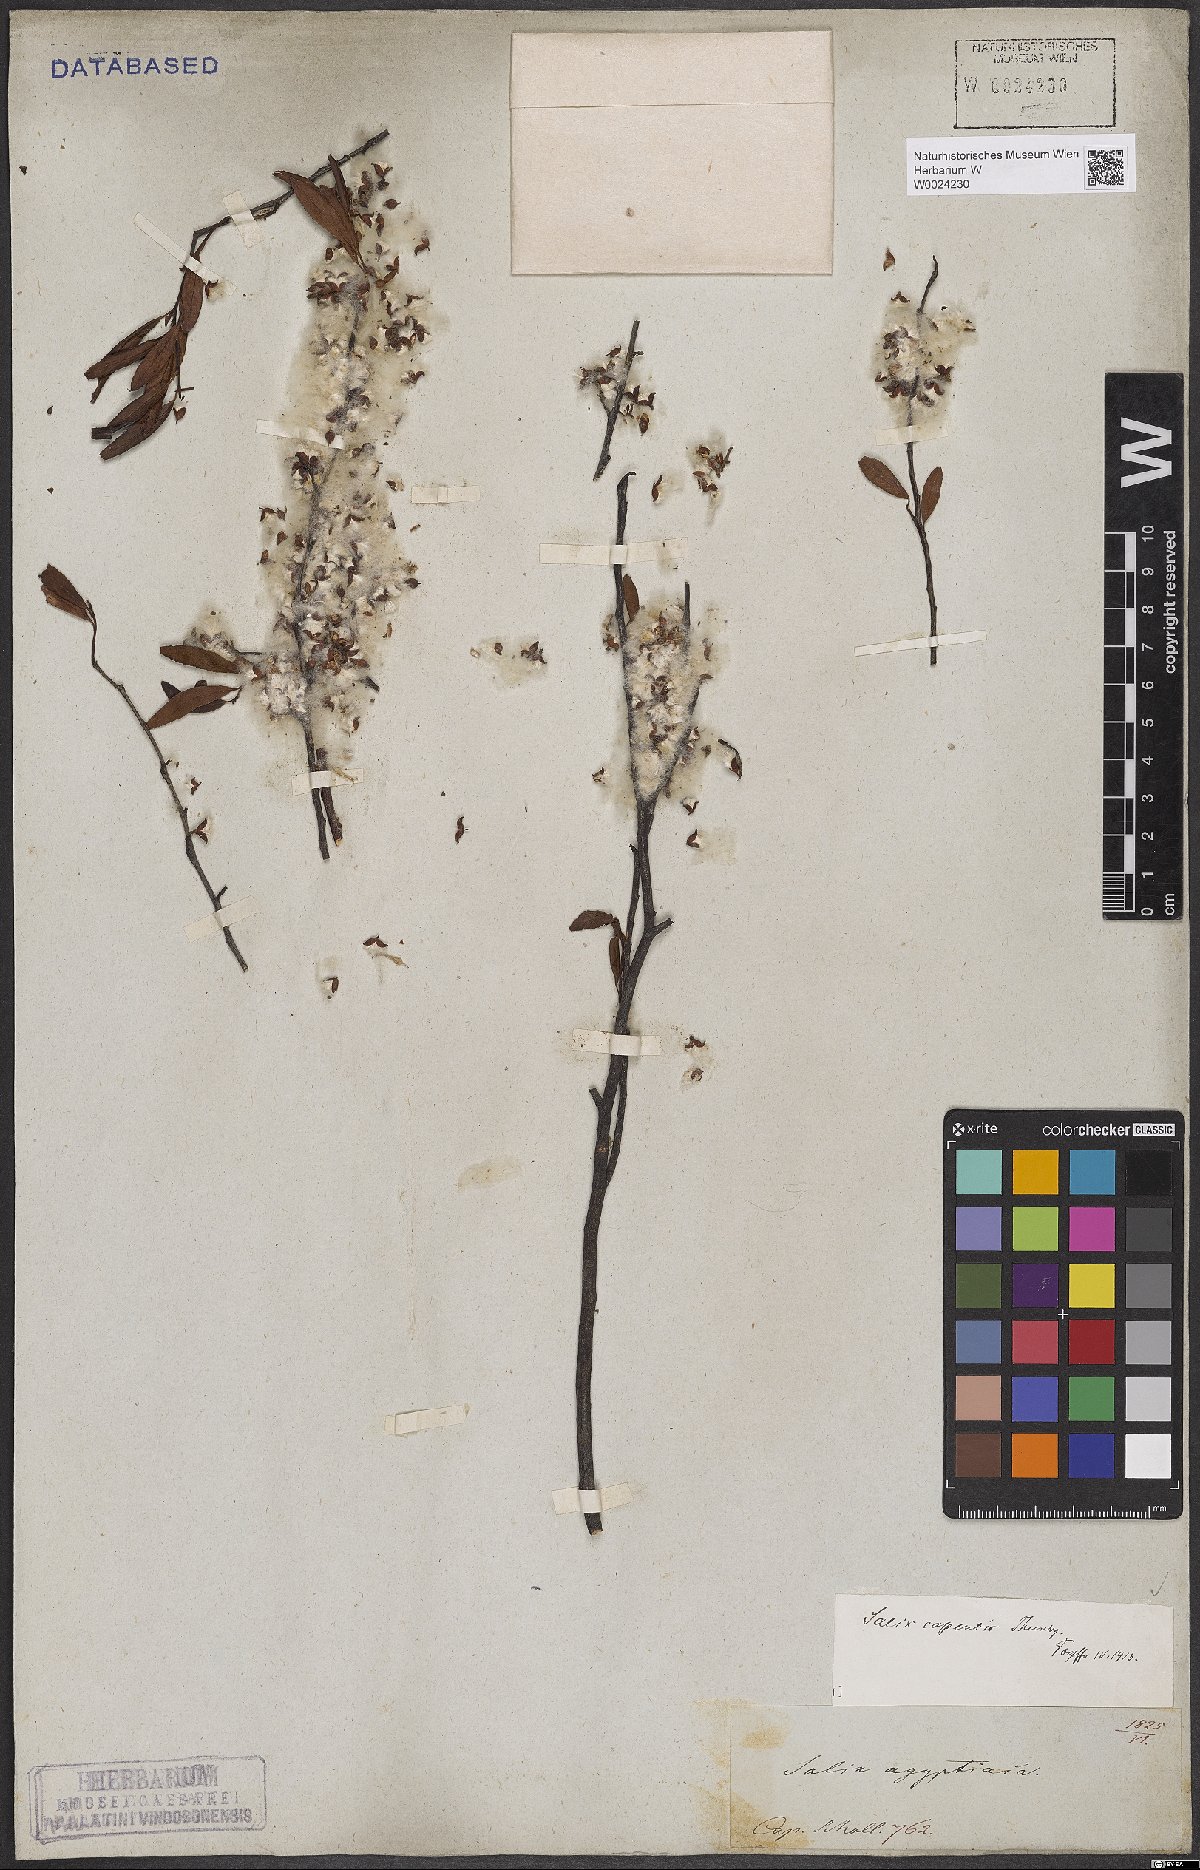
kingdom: Plantae
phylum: Tracheophyta
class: Magnoliopsida
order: Malpighiales
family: Salicaceae
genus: Salix
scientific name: Salix mucronata
